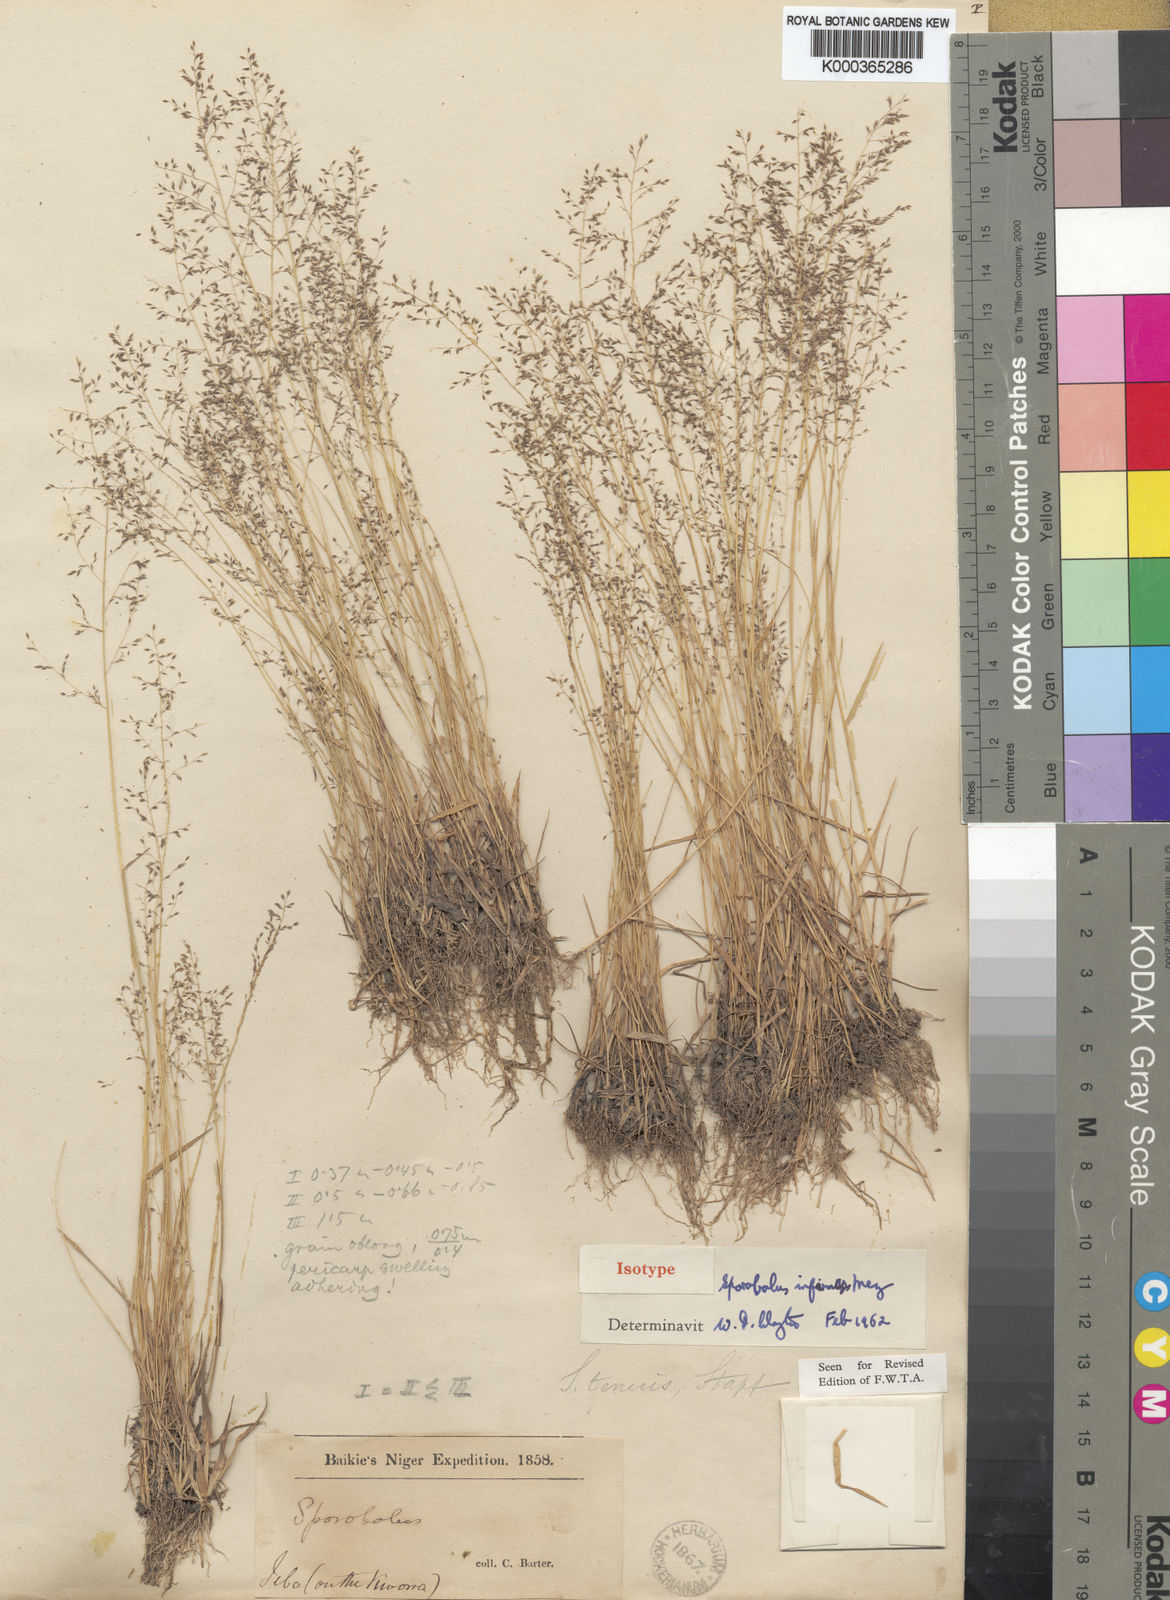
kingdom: Plantae
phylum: Tracheophyta
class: Liliopsida
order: Poales
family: Poaceae
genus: Sporobolus
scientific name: Sporobolus infirmus
